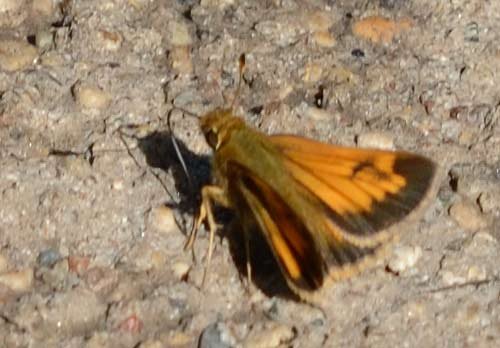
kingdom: Animalia
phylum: Arthropoda
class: Insecta
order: Lepidoptera
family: Hesperiidae
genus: Lon
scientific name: Lon hobomok
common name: Hobomok Skipper
